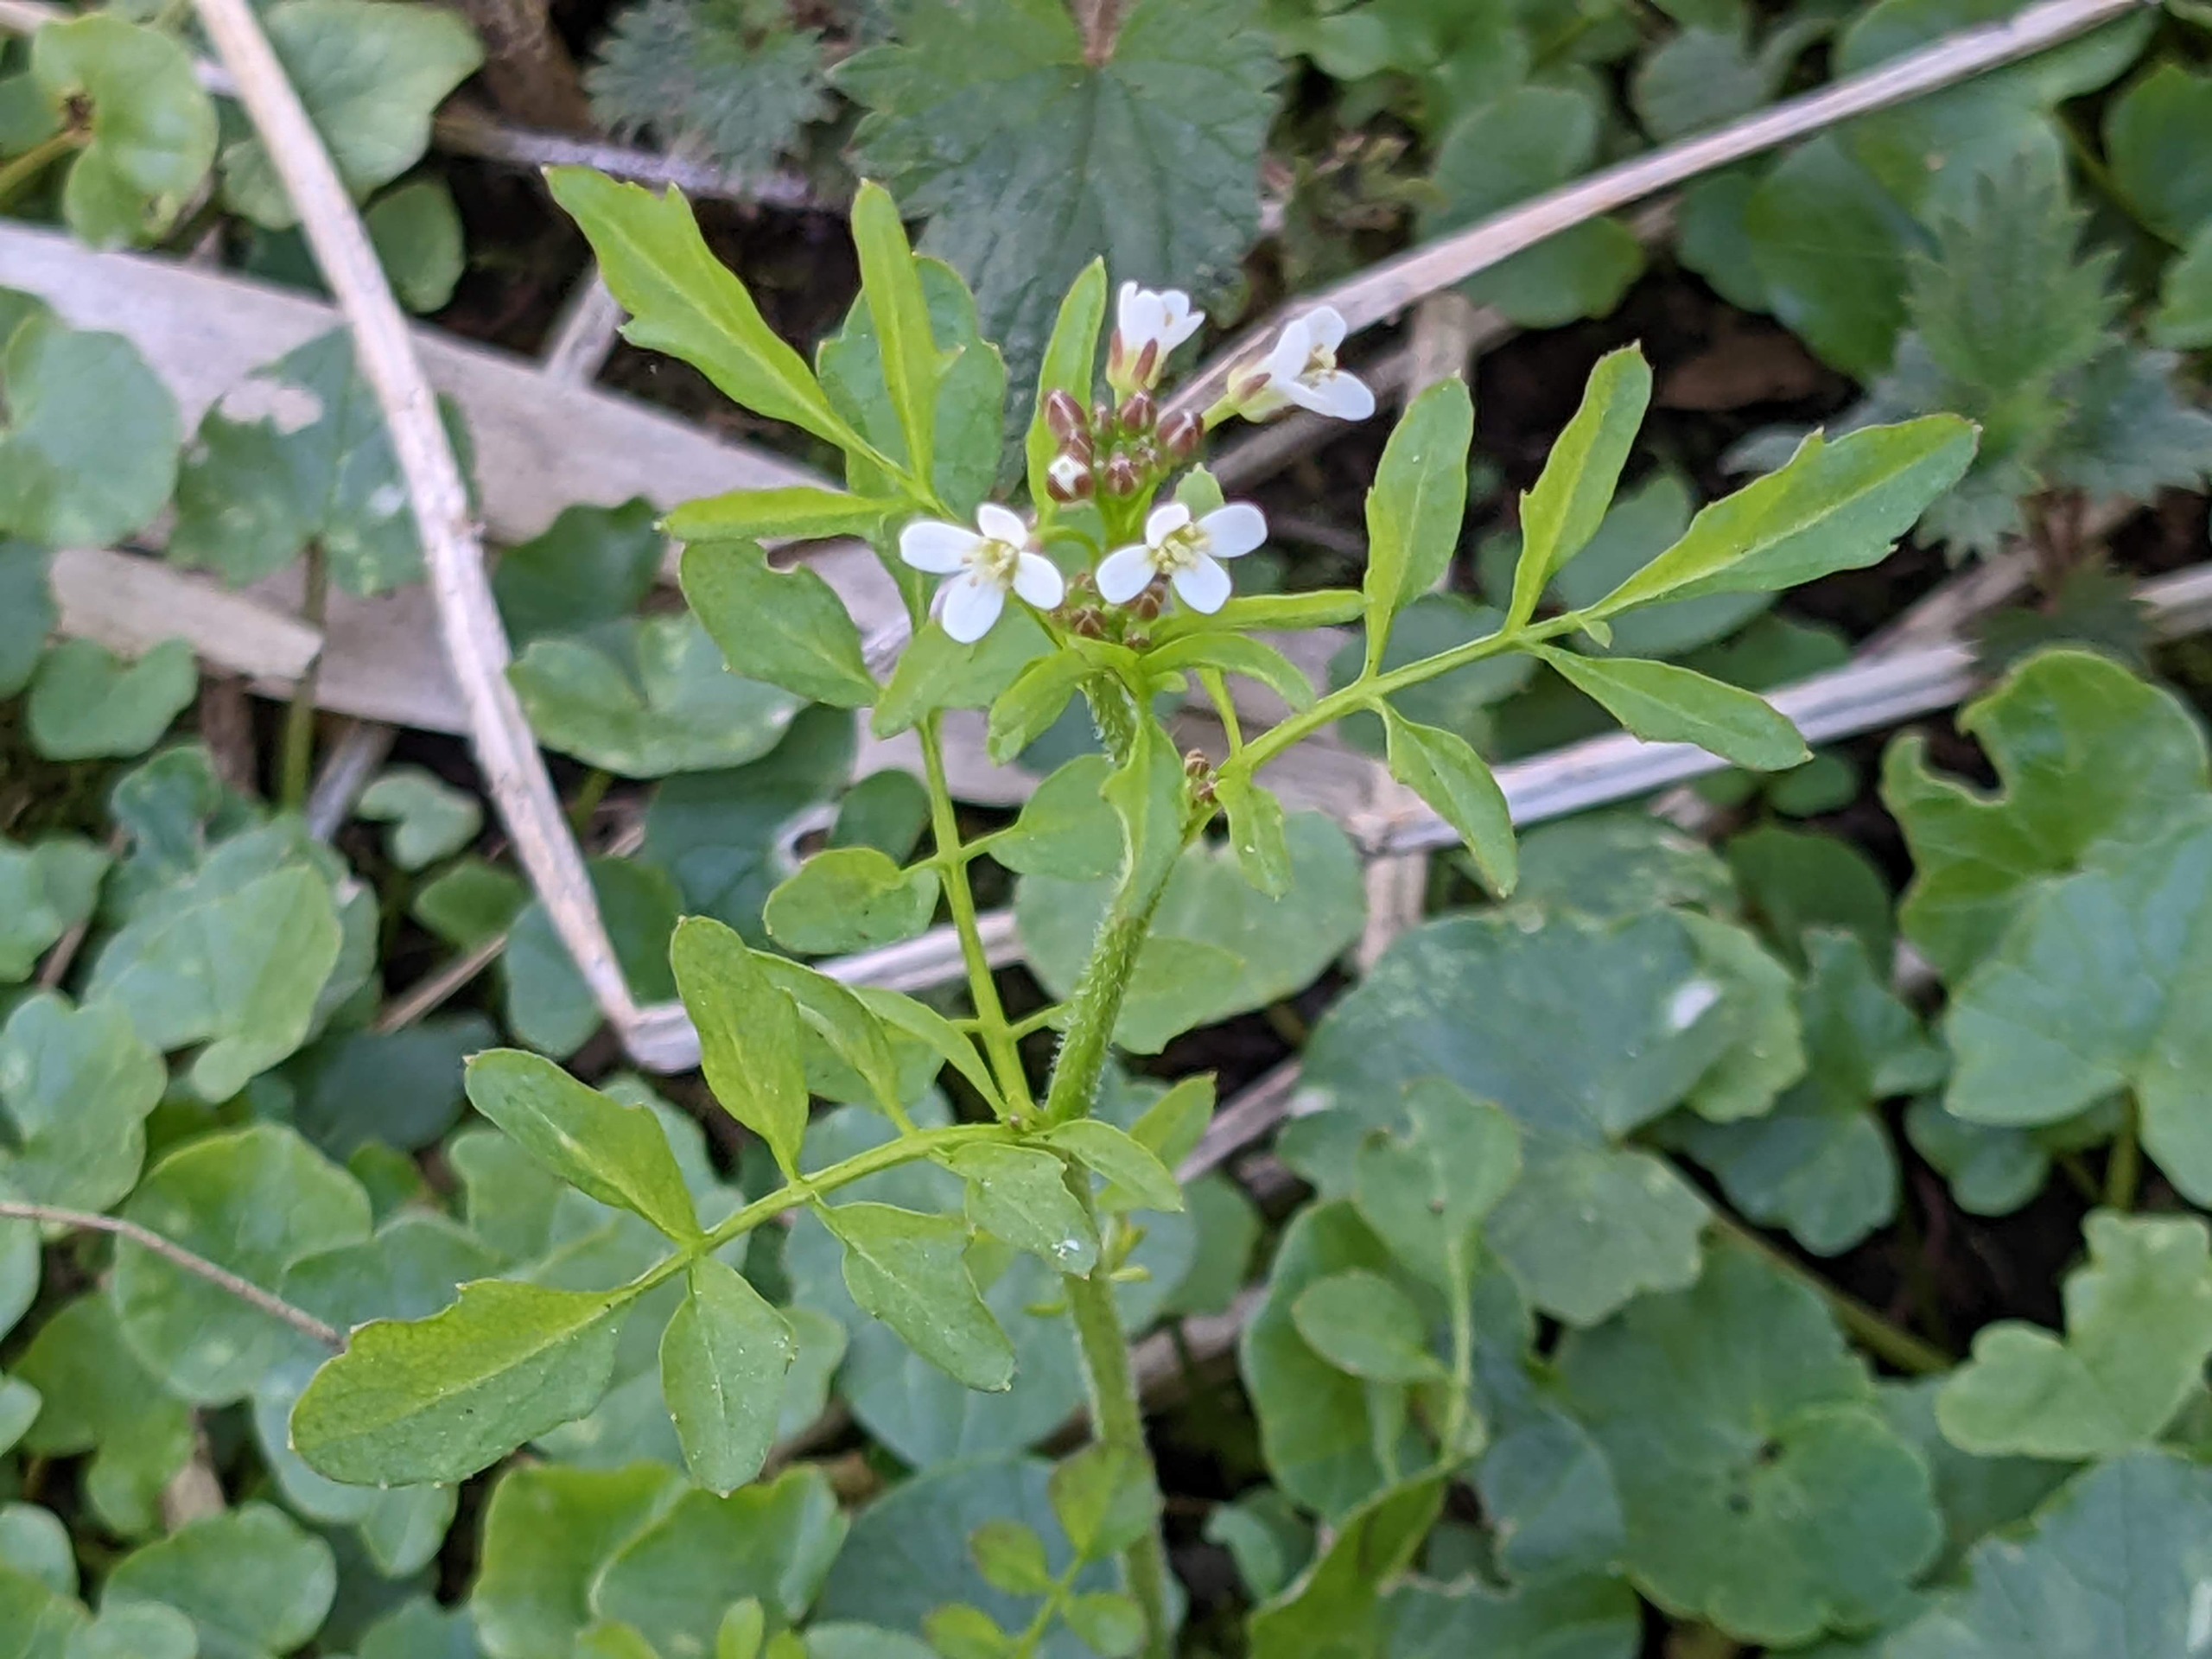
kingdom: Plantae
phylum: Tracheophyta
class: Magnoliopsida
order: Brassicales
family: Brassicaceae
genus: Cardamine
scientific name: Cardamine flexuosa
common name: Skov-springklap
